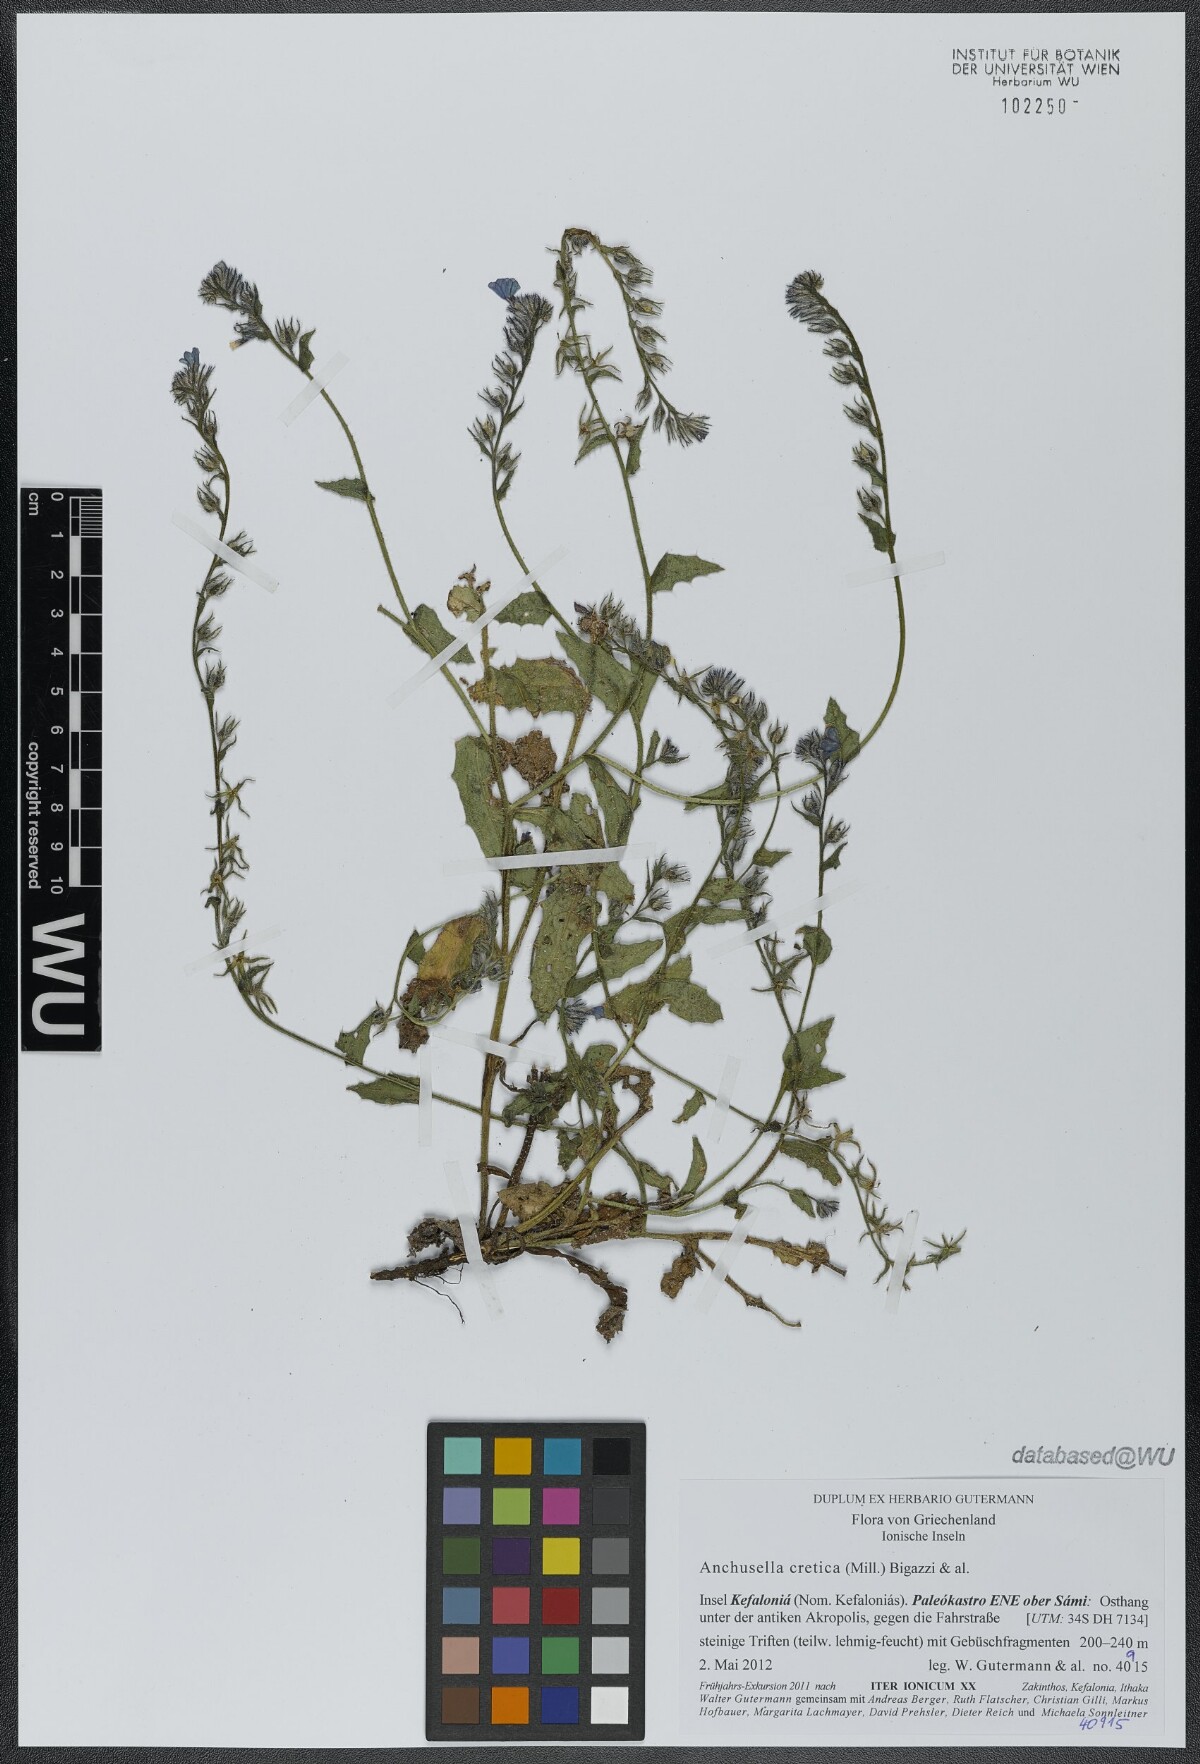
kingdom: Plantae
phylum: Tracheophyta
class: Magnoliopsida
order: Boraginales
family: Boraginaceae
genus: Anchusella
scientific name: Anchusella cretica
